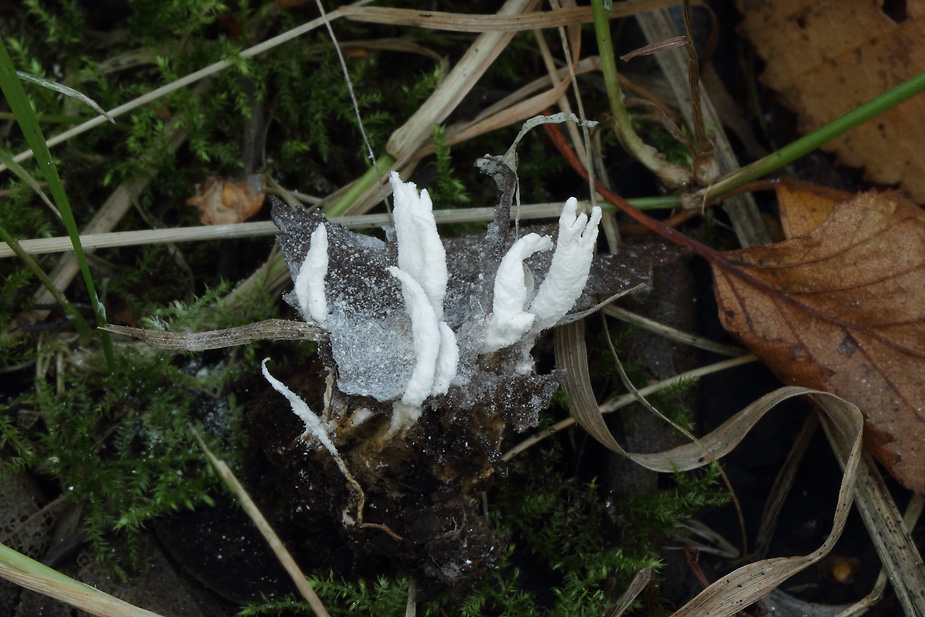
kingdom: Fungi
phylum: Ascomycota
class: Sordariomycetes
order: Hypocreales
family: Cordycipitaceae
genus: Cordyceps
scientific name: Cordyceps farinosa
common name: melet snyltekølle
